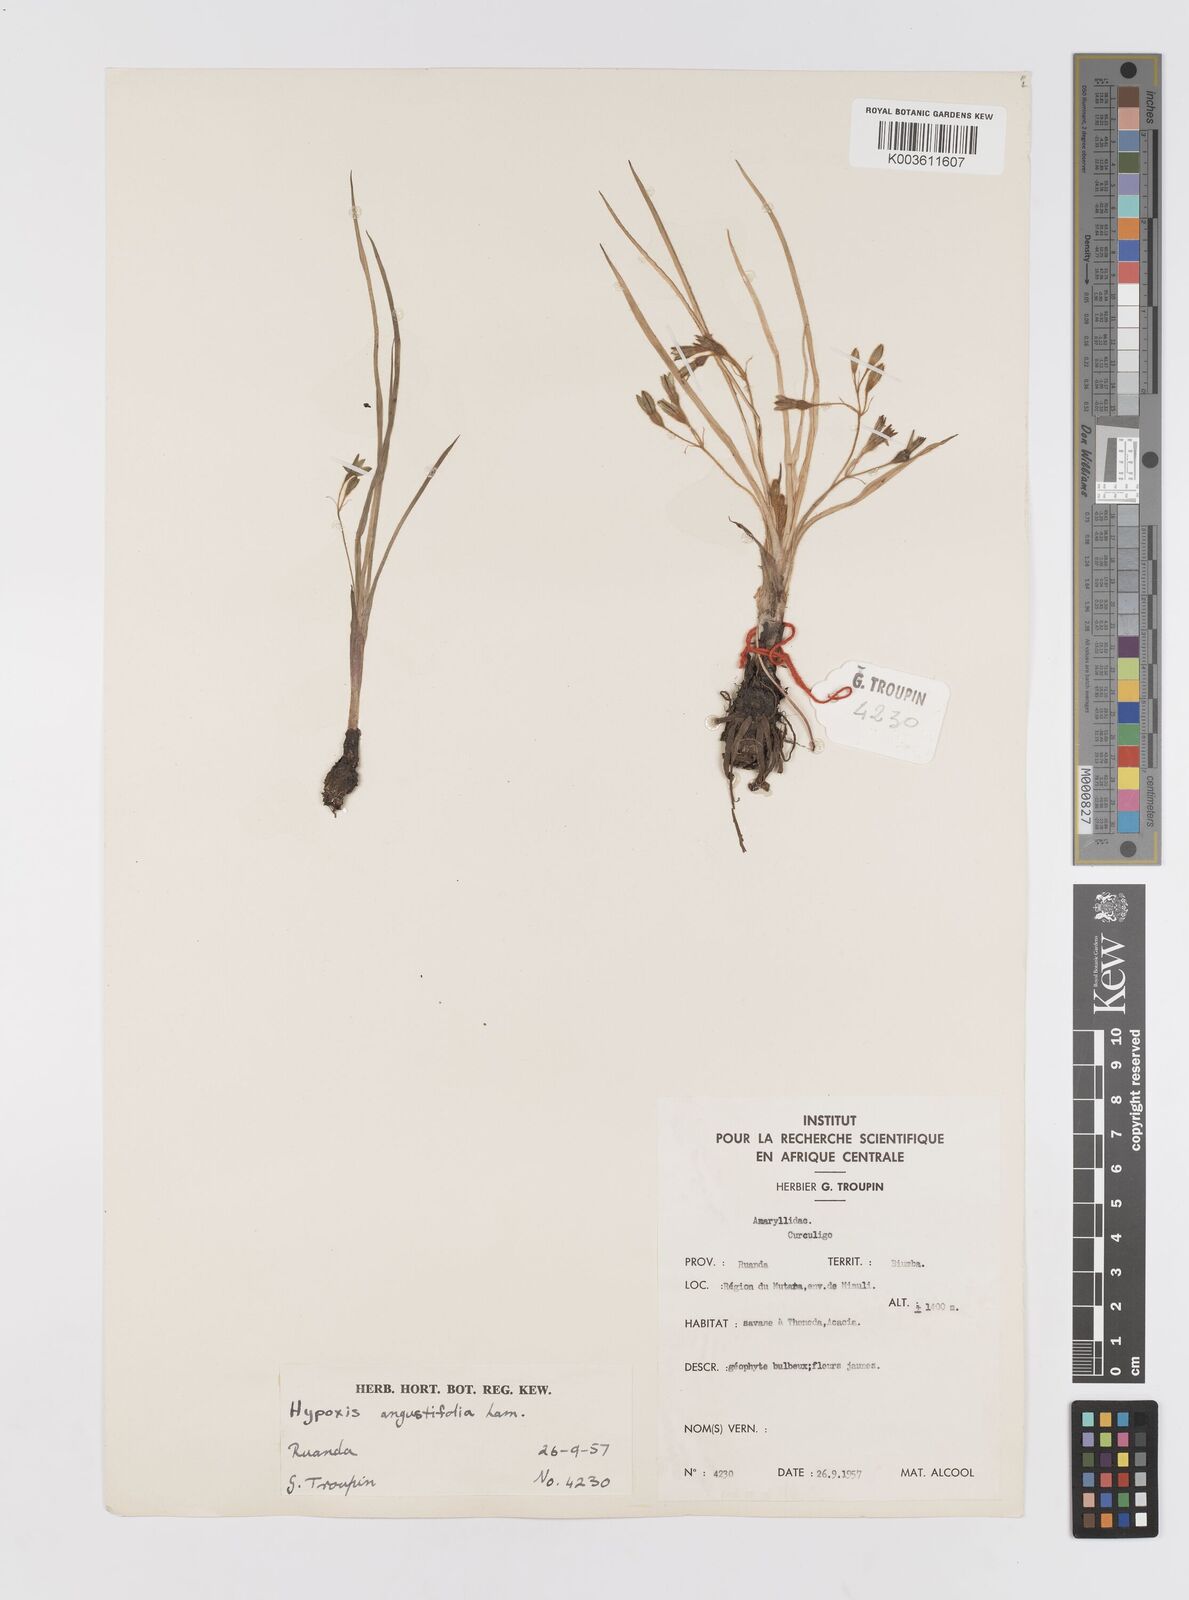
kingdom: Plantae
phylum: Tracheophyta
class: Liliopsida
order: Asparagales
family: Hypoxidaceae
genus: Hypoxis
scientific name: Hypoxis angustifolia
